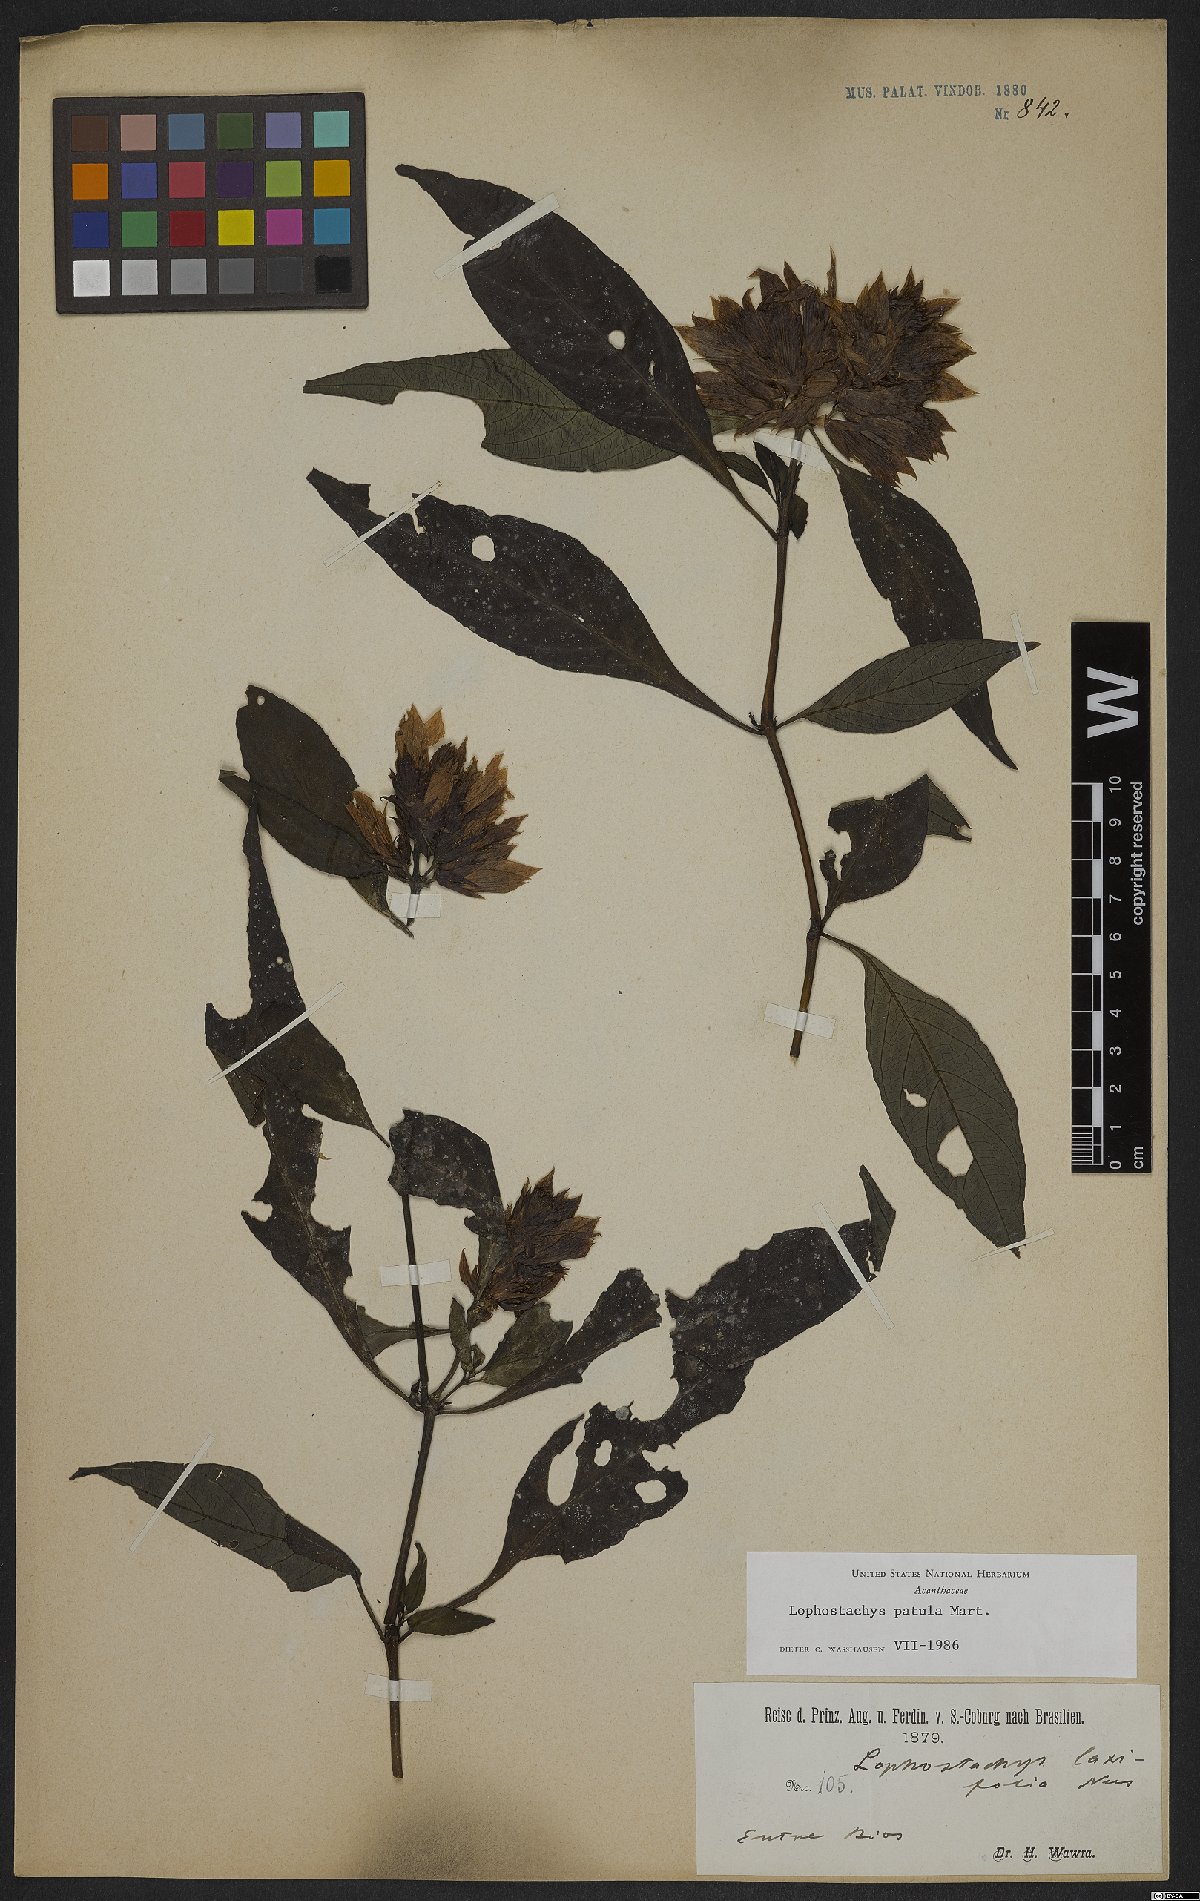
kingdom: Plantae
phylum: Tracheophyta
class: Magnoliopsida
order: Lamiales
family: Acanthaceae
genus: Lepidagathis
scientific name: Lepidagathis laxifolia
